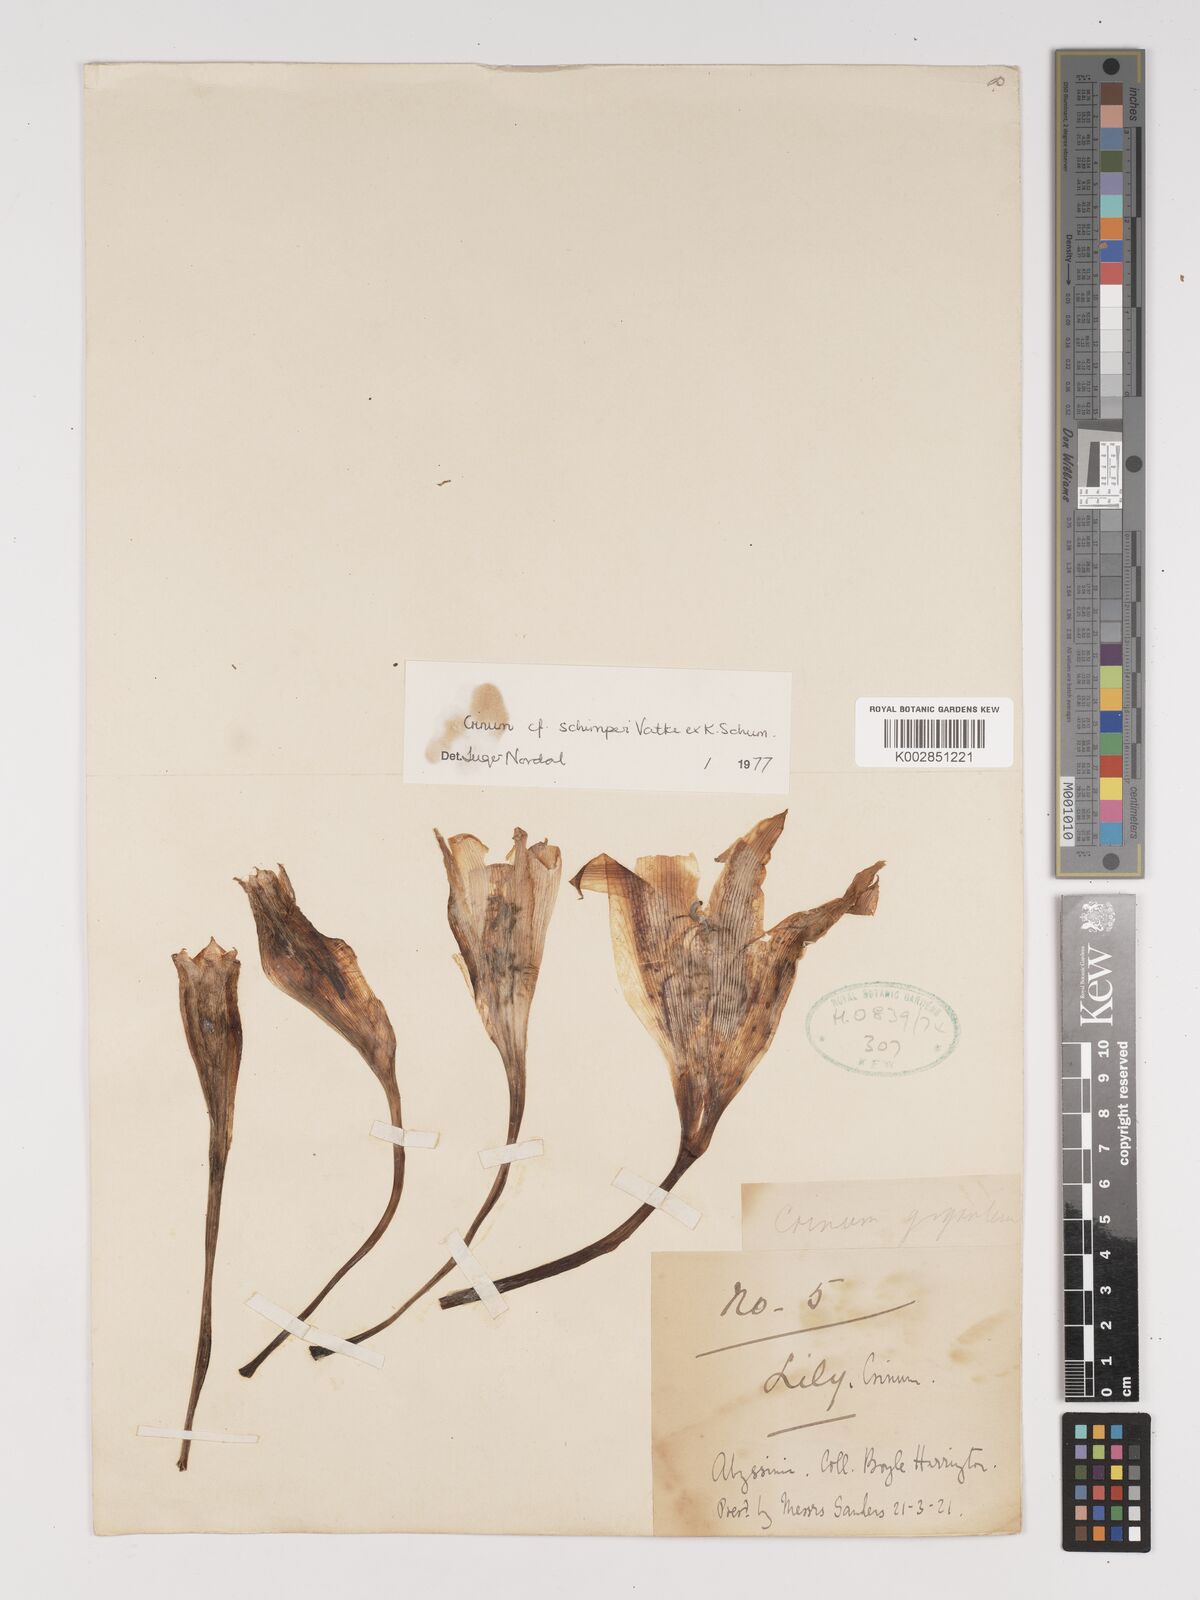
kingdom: Plantae
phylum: Tracheophyta
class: Liliopsida
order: Asparagales
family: Amaryllidaceae
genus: Crinum
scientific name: Crinum abyssinicum
